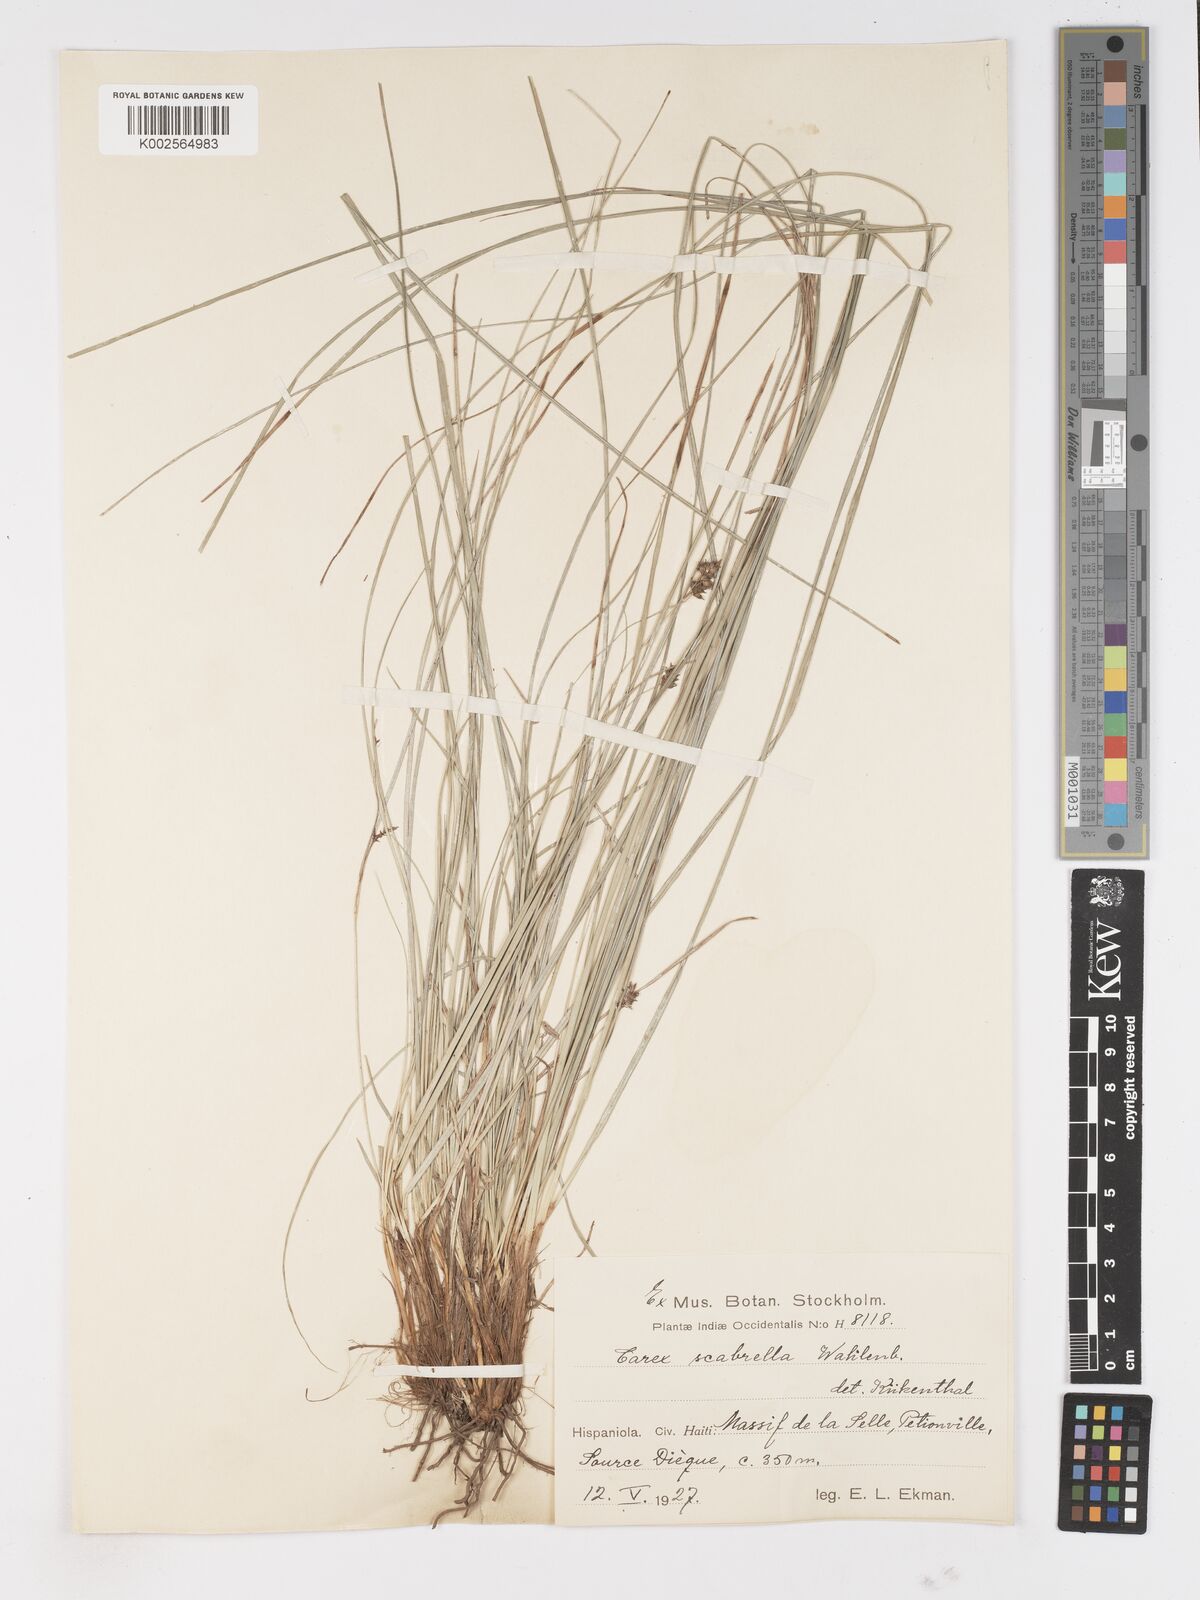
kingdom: Plantae
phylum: Tracheophyta
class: Liliopsida
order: Poales
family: Cyperaceae
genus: Carex
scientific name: Carex scabrella
